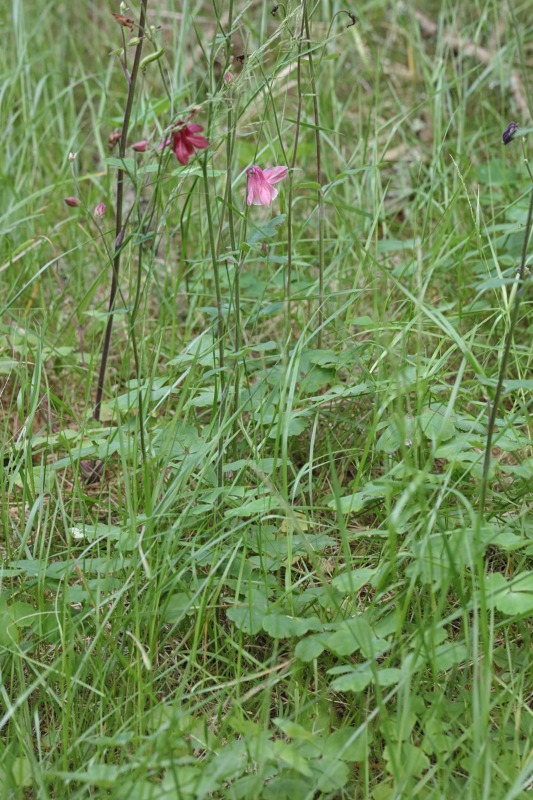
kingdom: Plantae
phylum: Tracheophyta
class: Magnoliopsida
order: Ranunculales
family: Ranunculaceae
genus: Aquilegia
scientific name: Aquilegia vulgaris
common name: Akeleje
